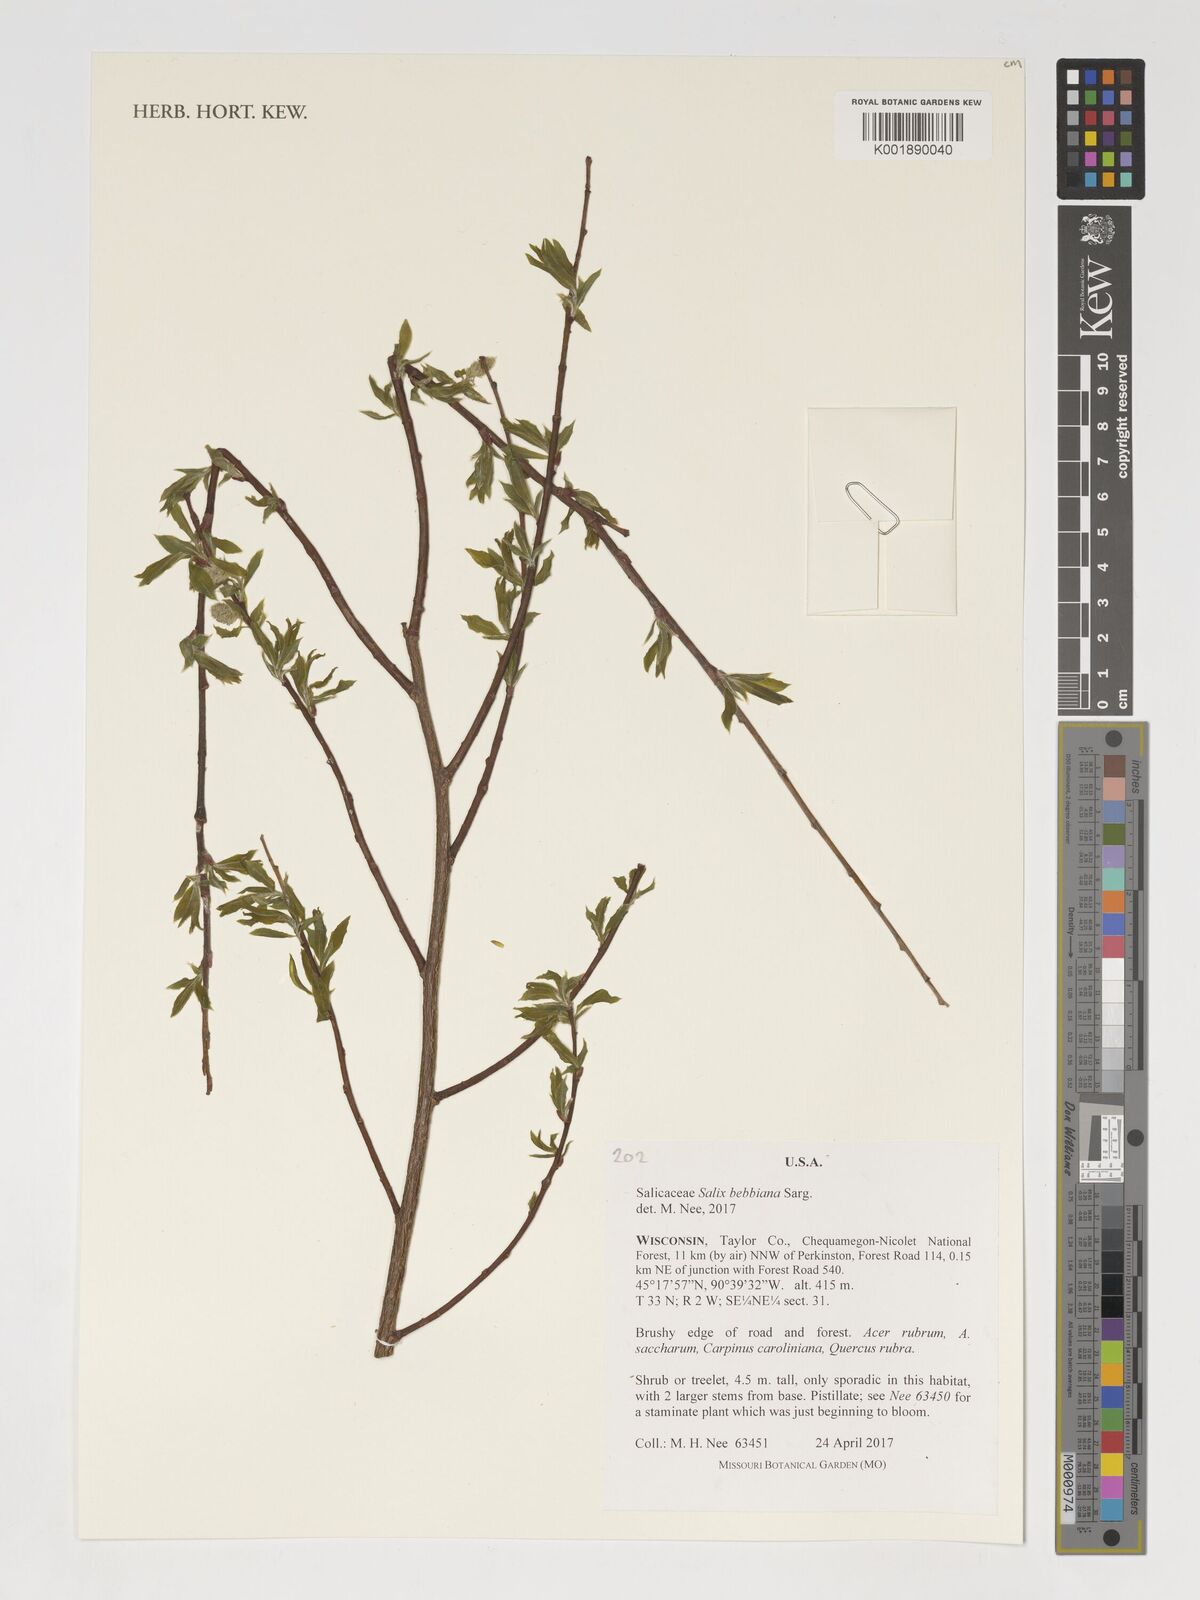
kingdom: Plantae
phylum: Tracheophyta
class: Magnoliopsida
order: Malpighiales
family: Salicaceae
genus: Salix
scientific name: Salix bebbiana
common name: Bebb's willow
